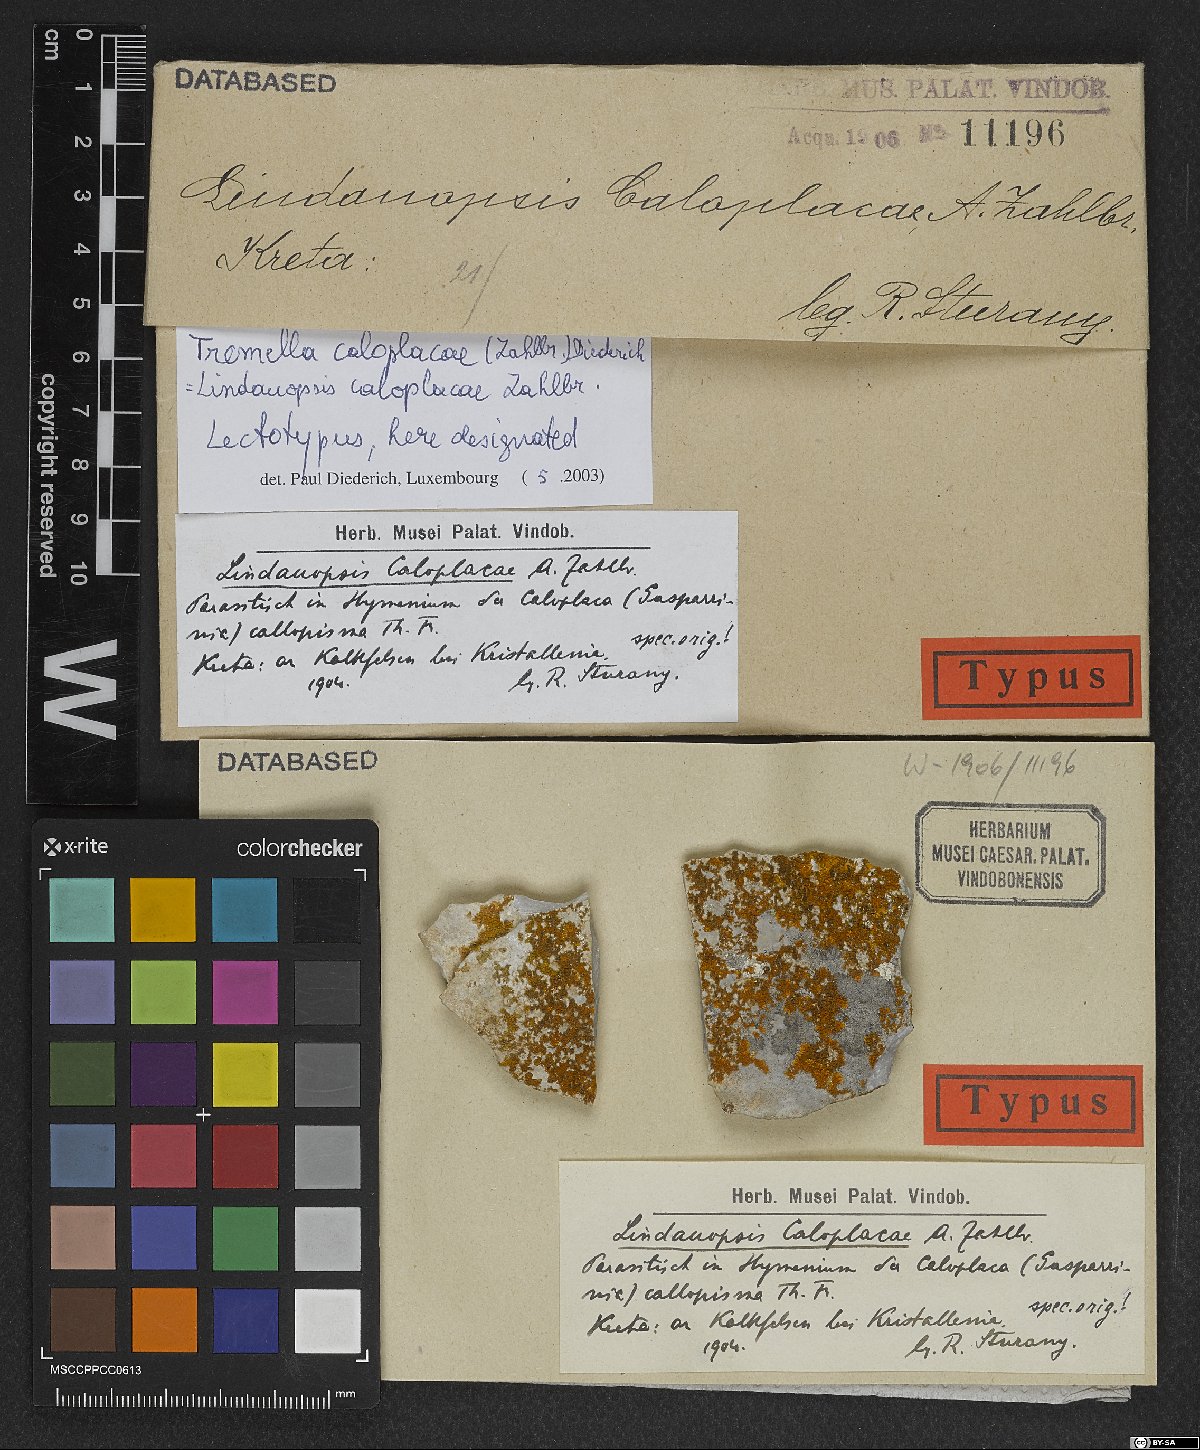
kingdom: Fungi
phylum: Basidiomycota
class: Tremellomycetes
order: Tremellales
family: Tremellaceae
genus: Tremella
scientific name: Tremella caloplacae
